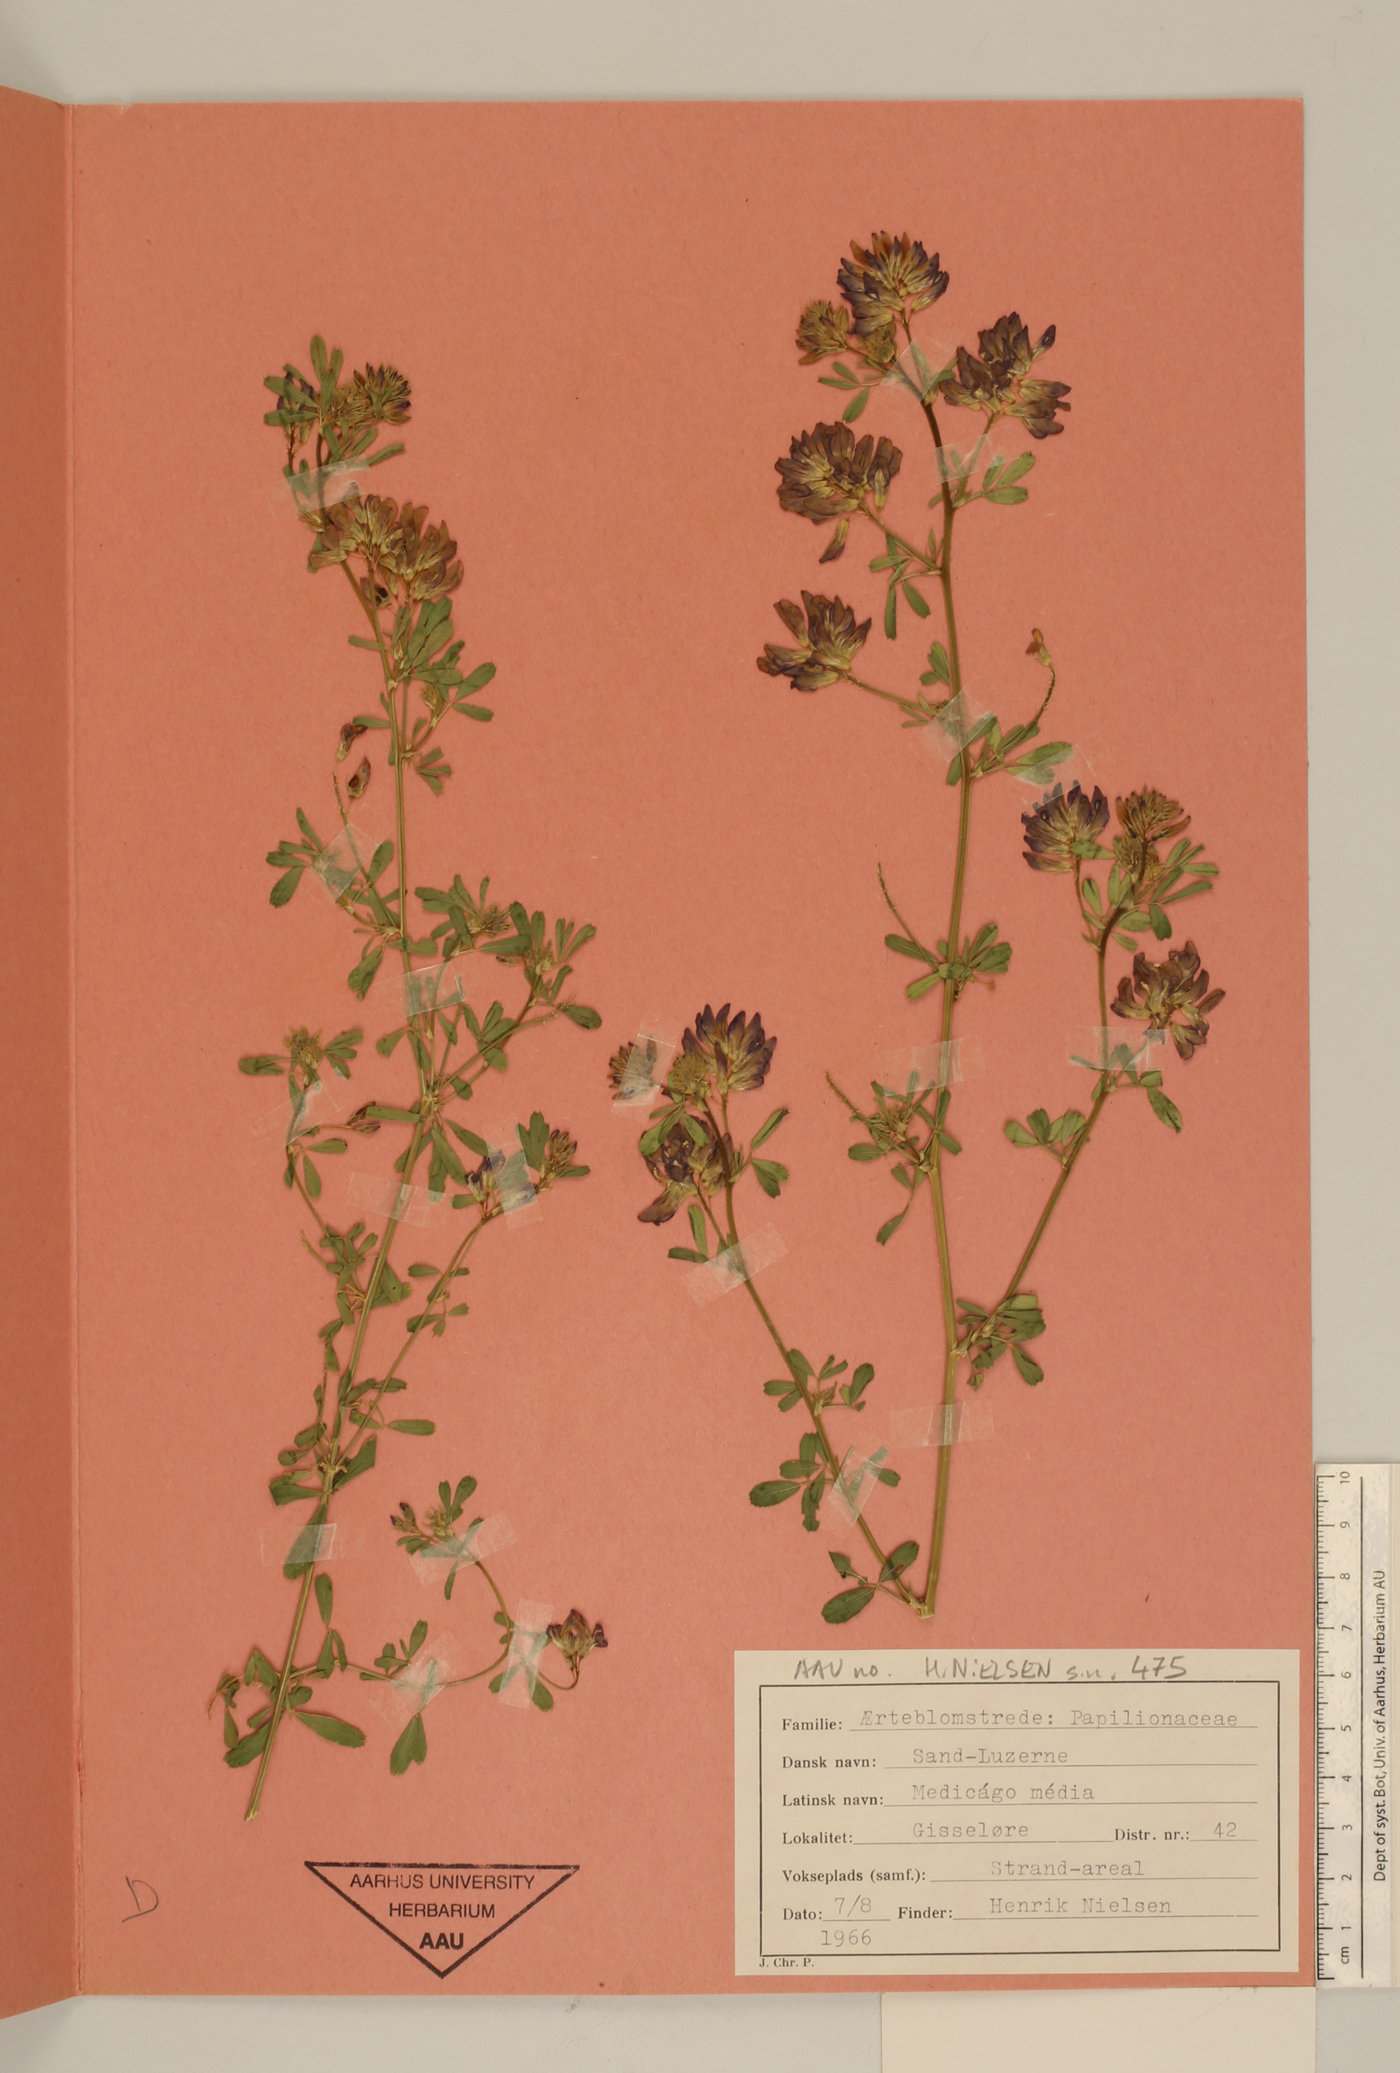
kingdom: Plantae
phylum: Tracheophyta
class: Magnoliopsida
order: Fabales
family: Fabaceae
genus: Medicago
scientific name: Medicago varia
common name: Sand lucerne
